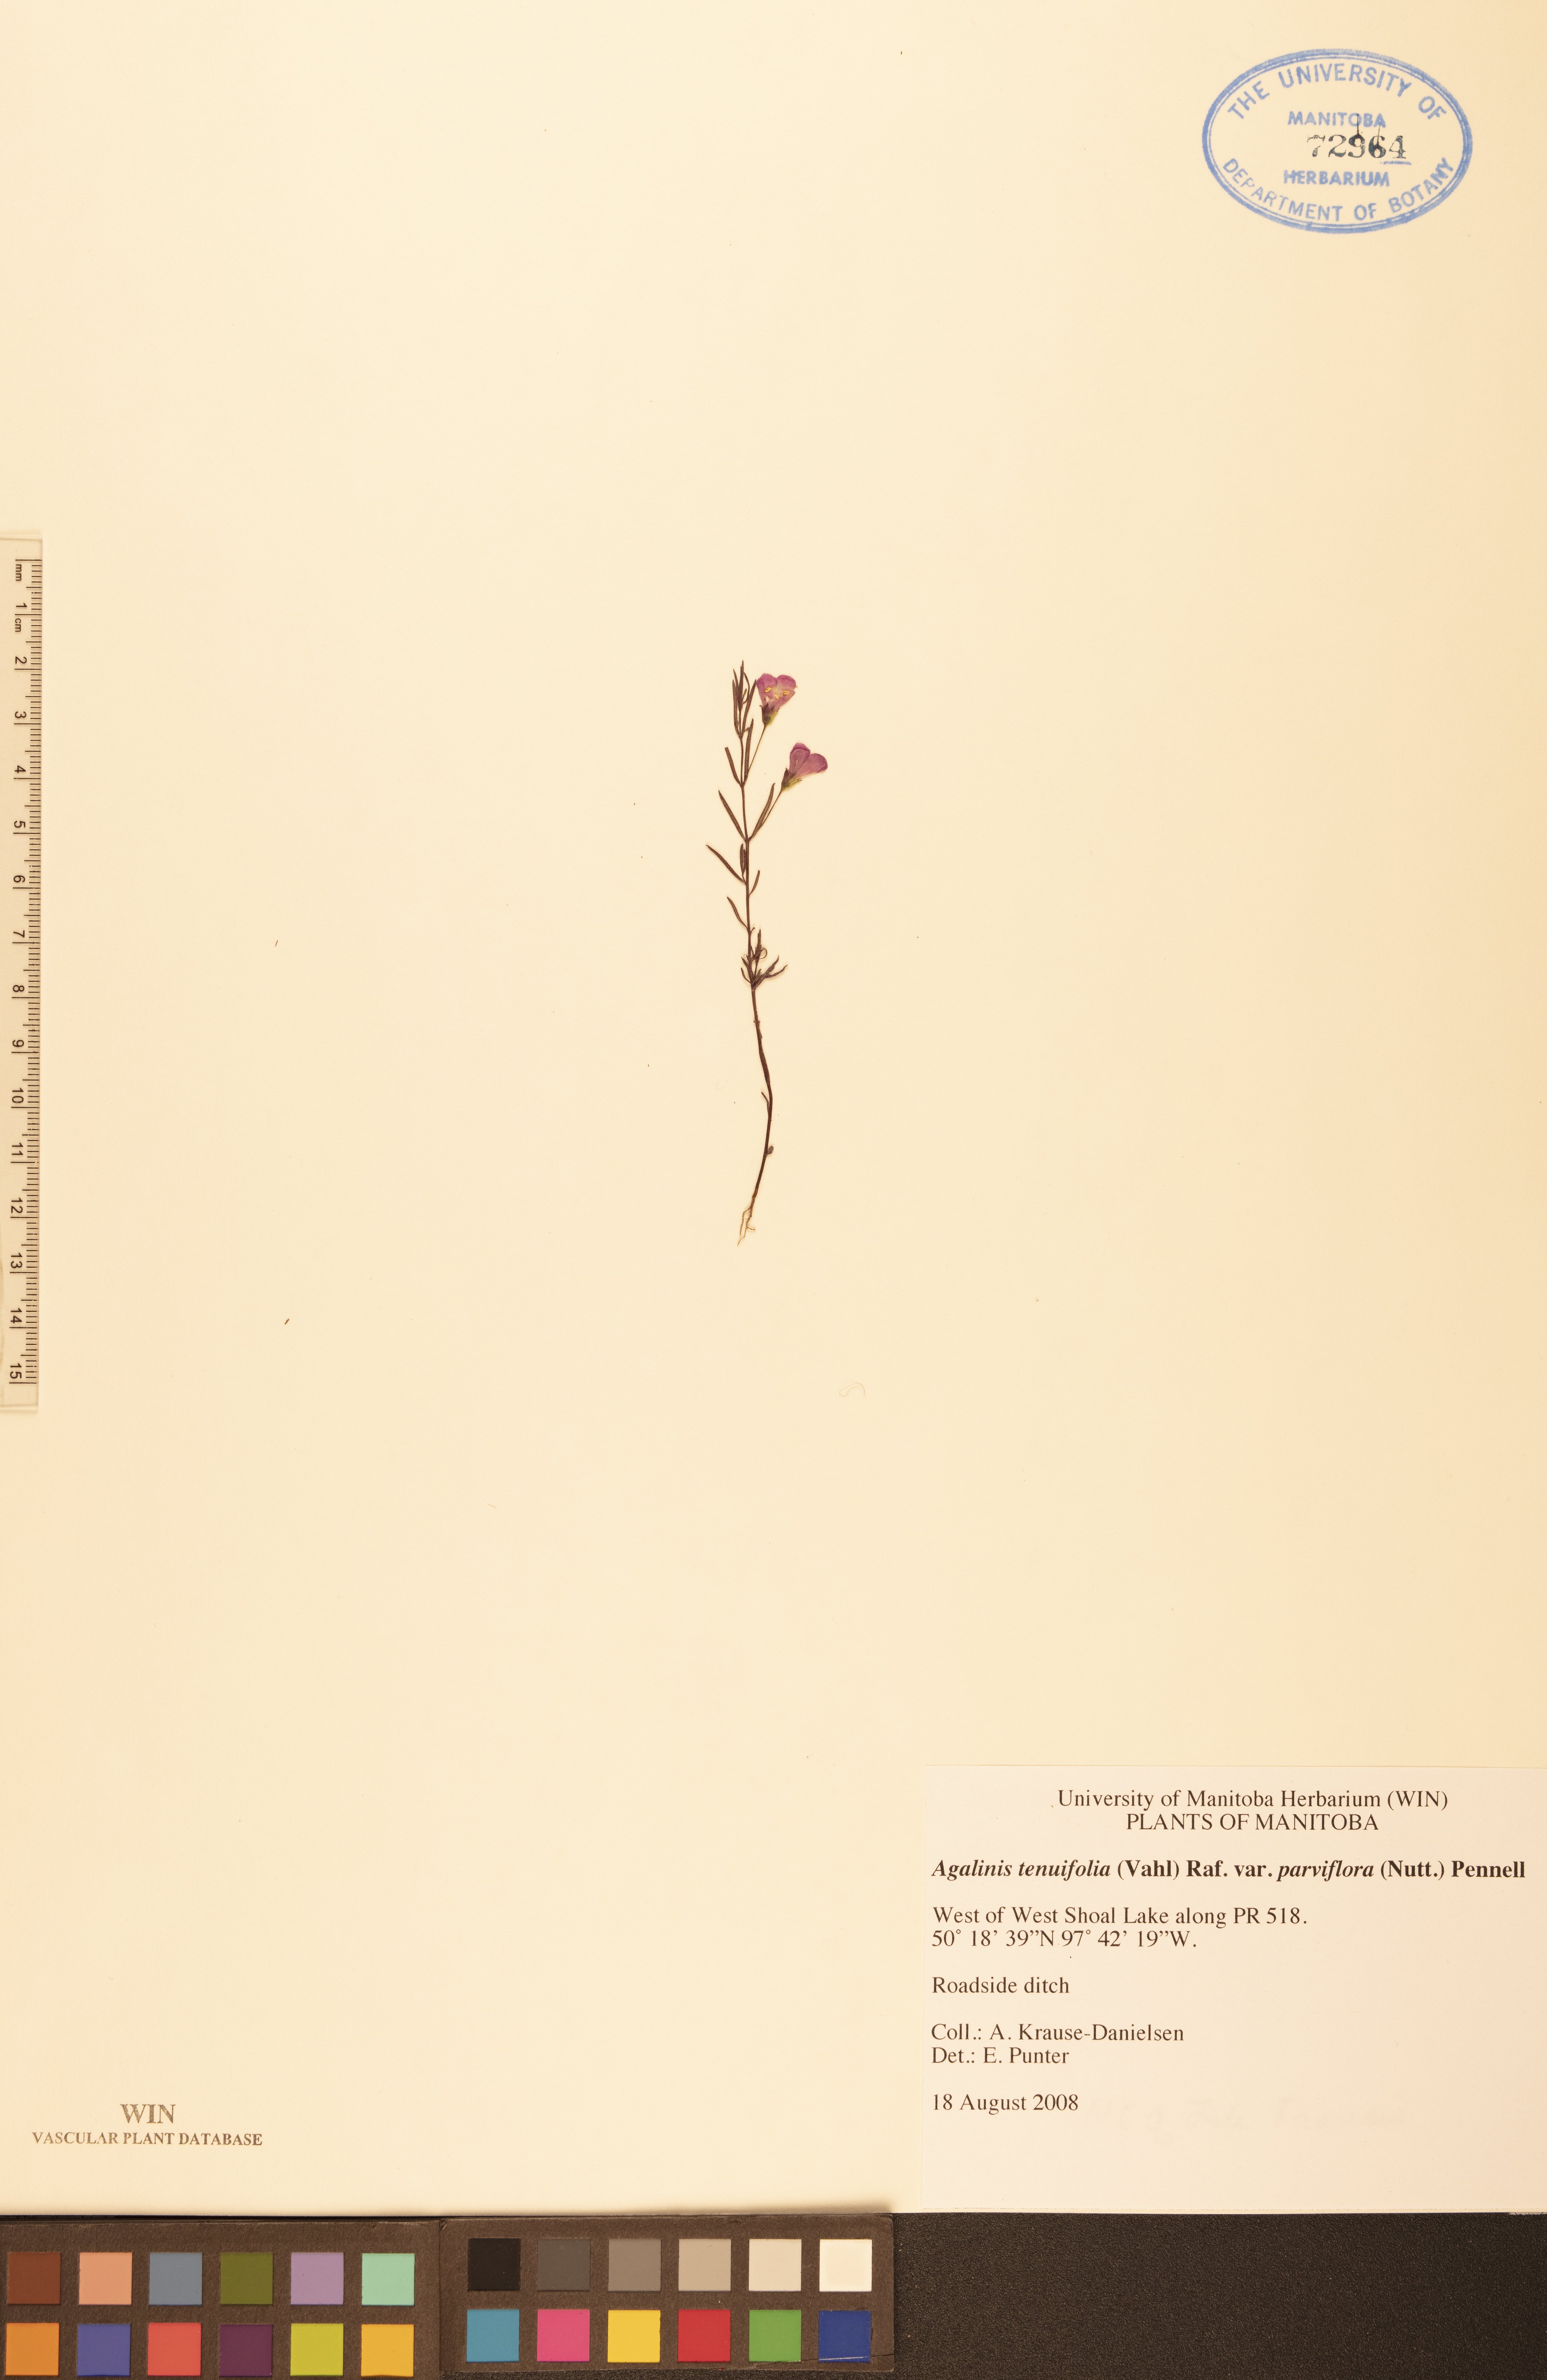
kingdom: Plantae
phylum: Tracheophyta
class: Magnoliopsida
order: Lamiales
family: Orobanchaceae
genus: Agalinis
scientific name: Agalinis tenuifolia
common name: Slender agalinis
